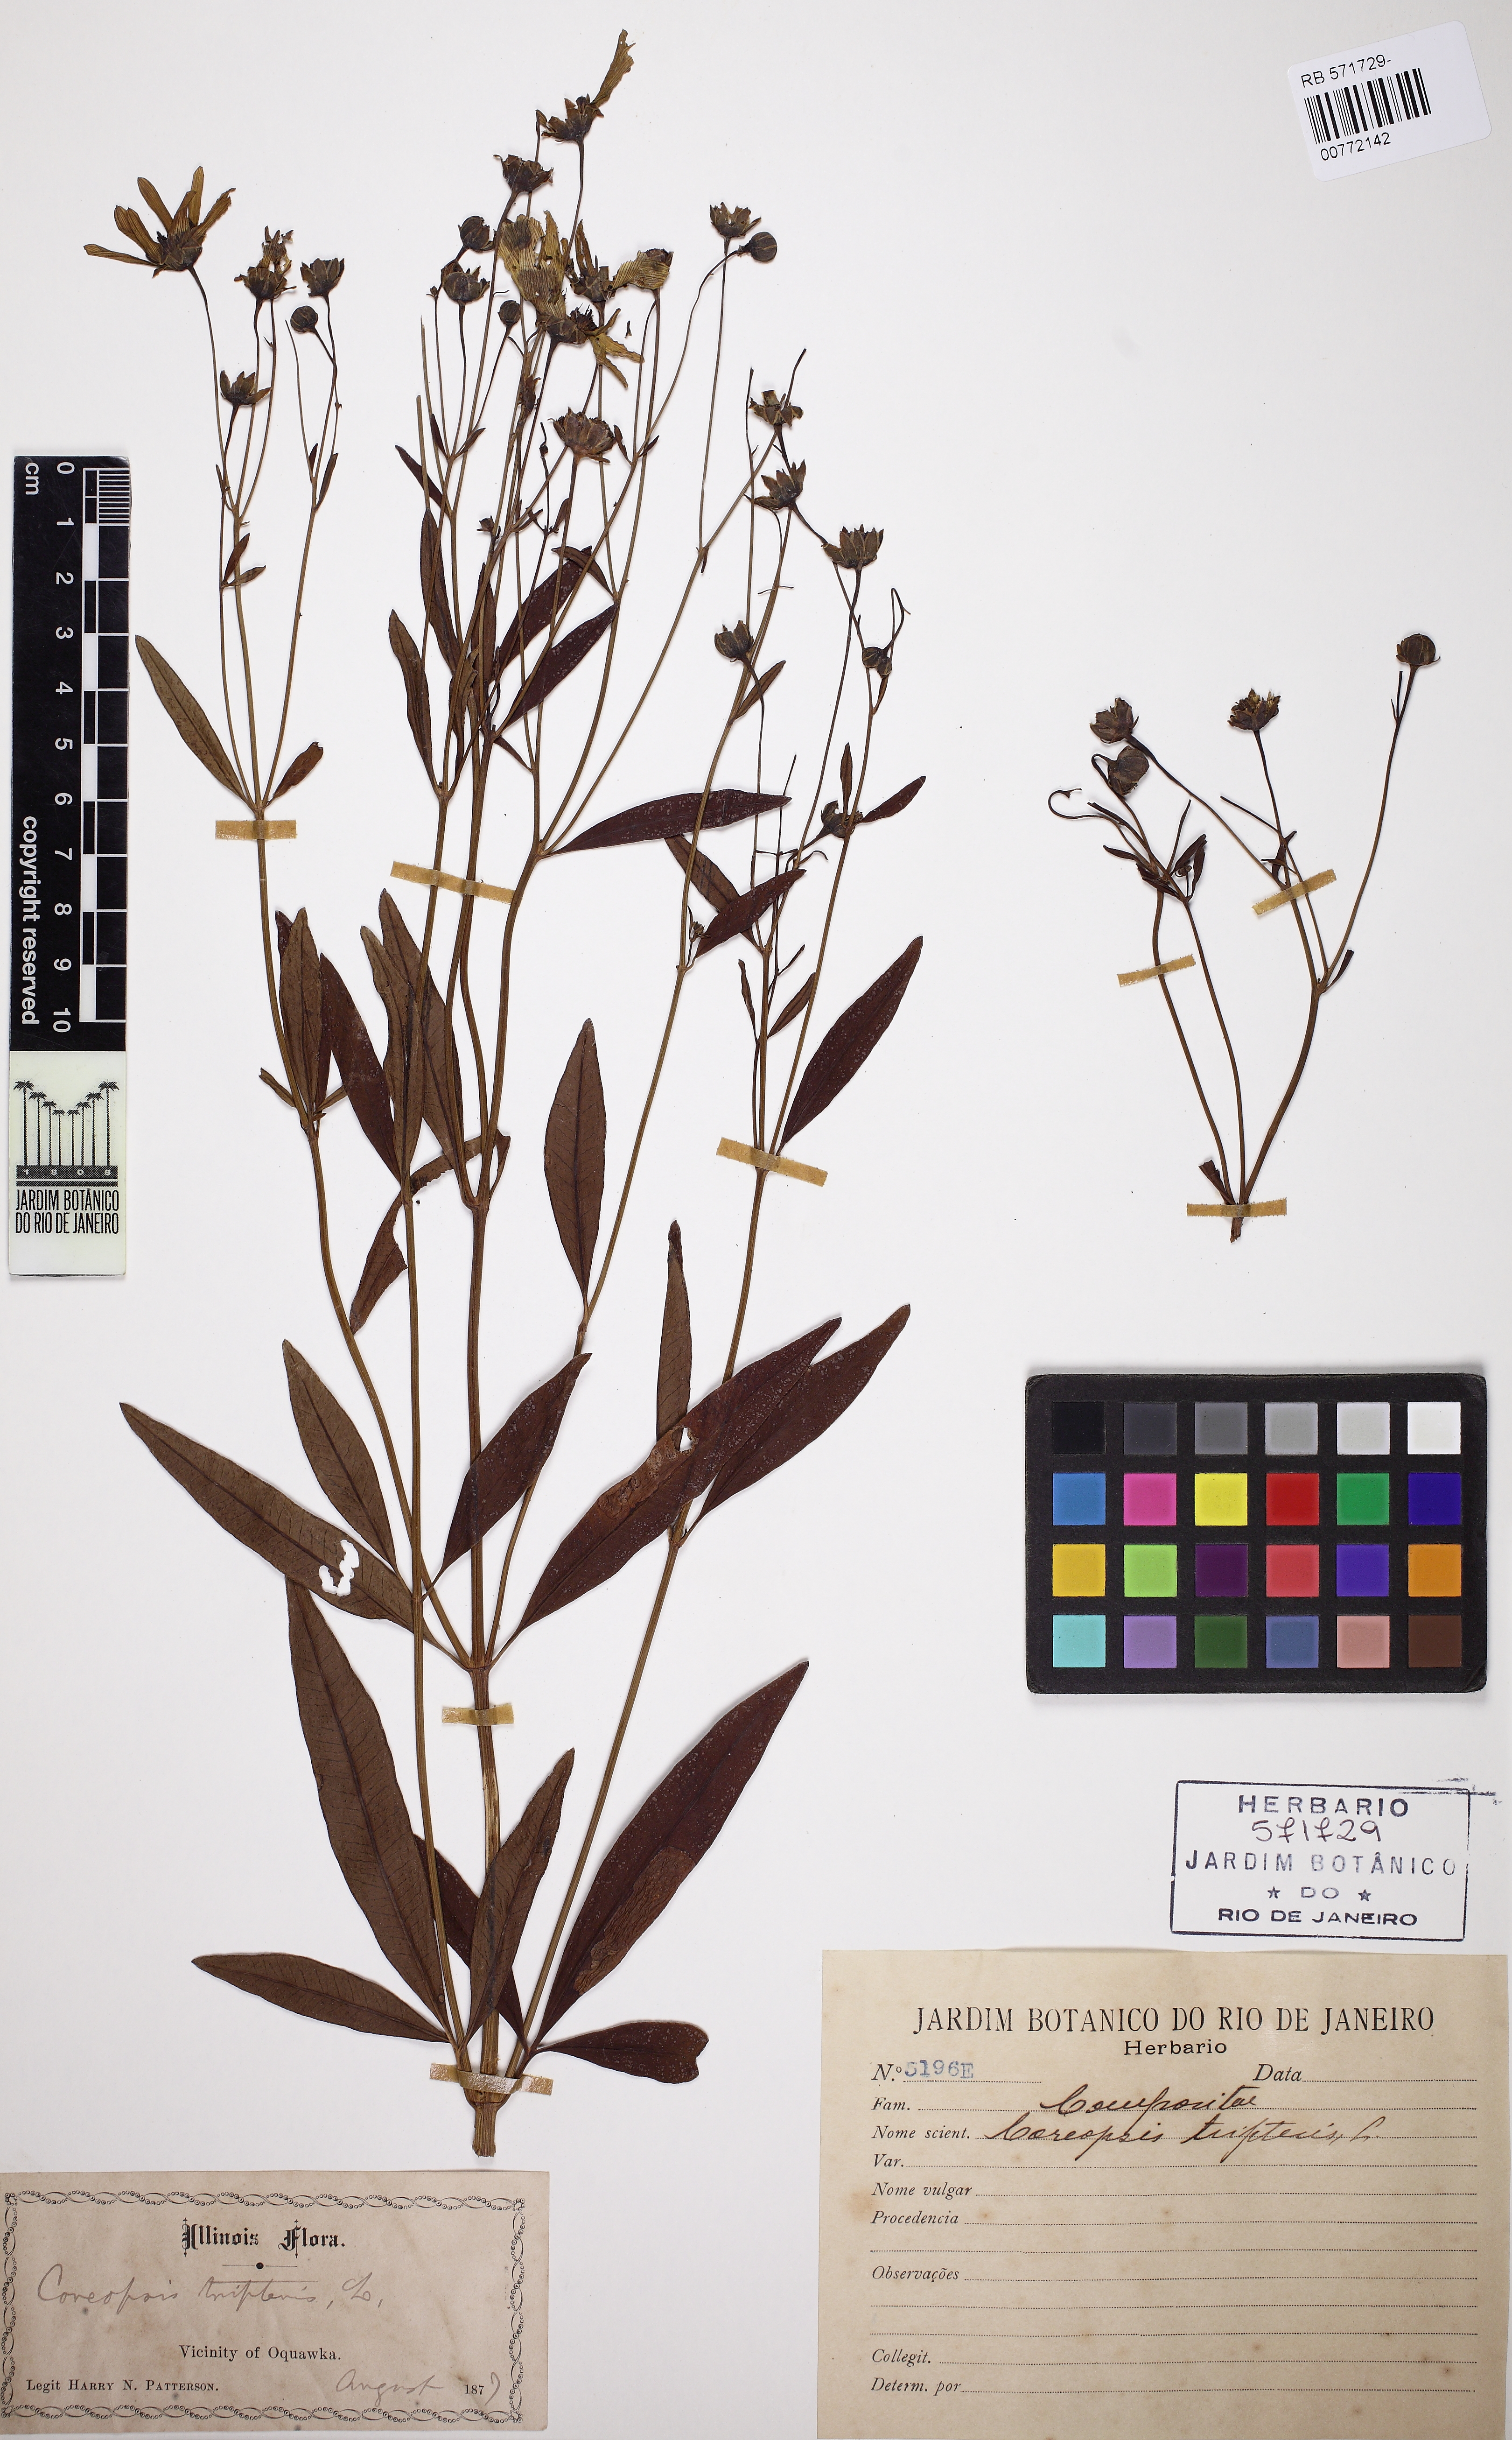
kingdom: Plantae
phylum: Tracheophyta
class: Magnoliopsida
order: Asterales
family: Asteraceae
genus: Coreopsis
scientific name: Coreopsis tirpteris
